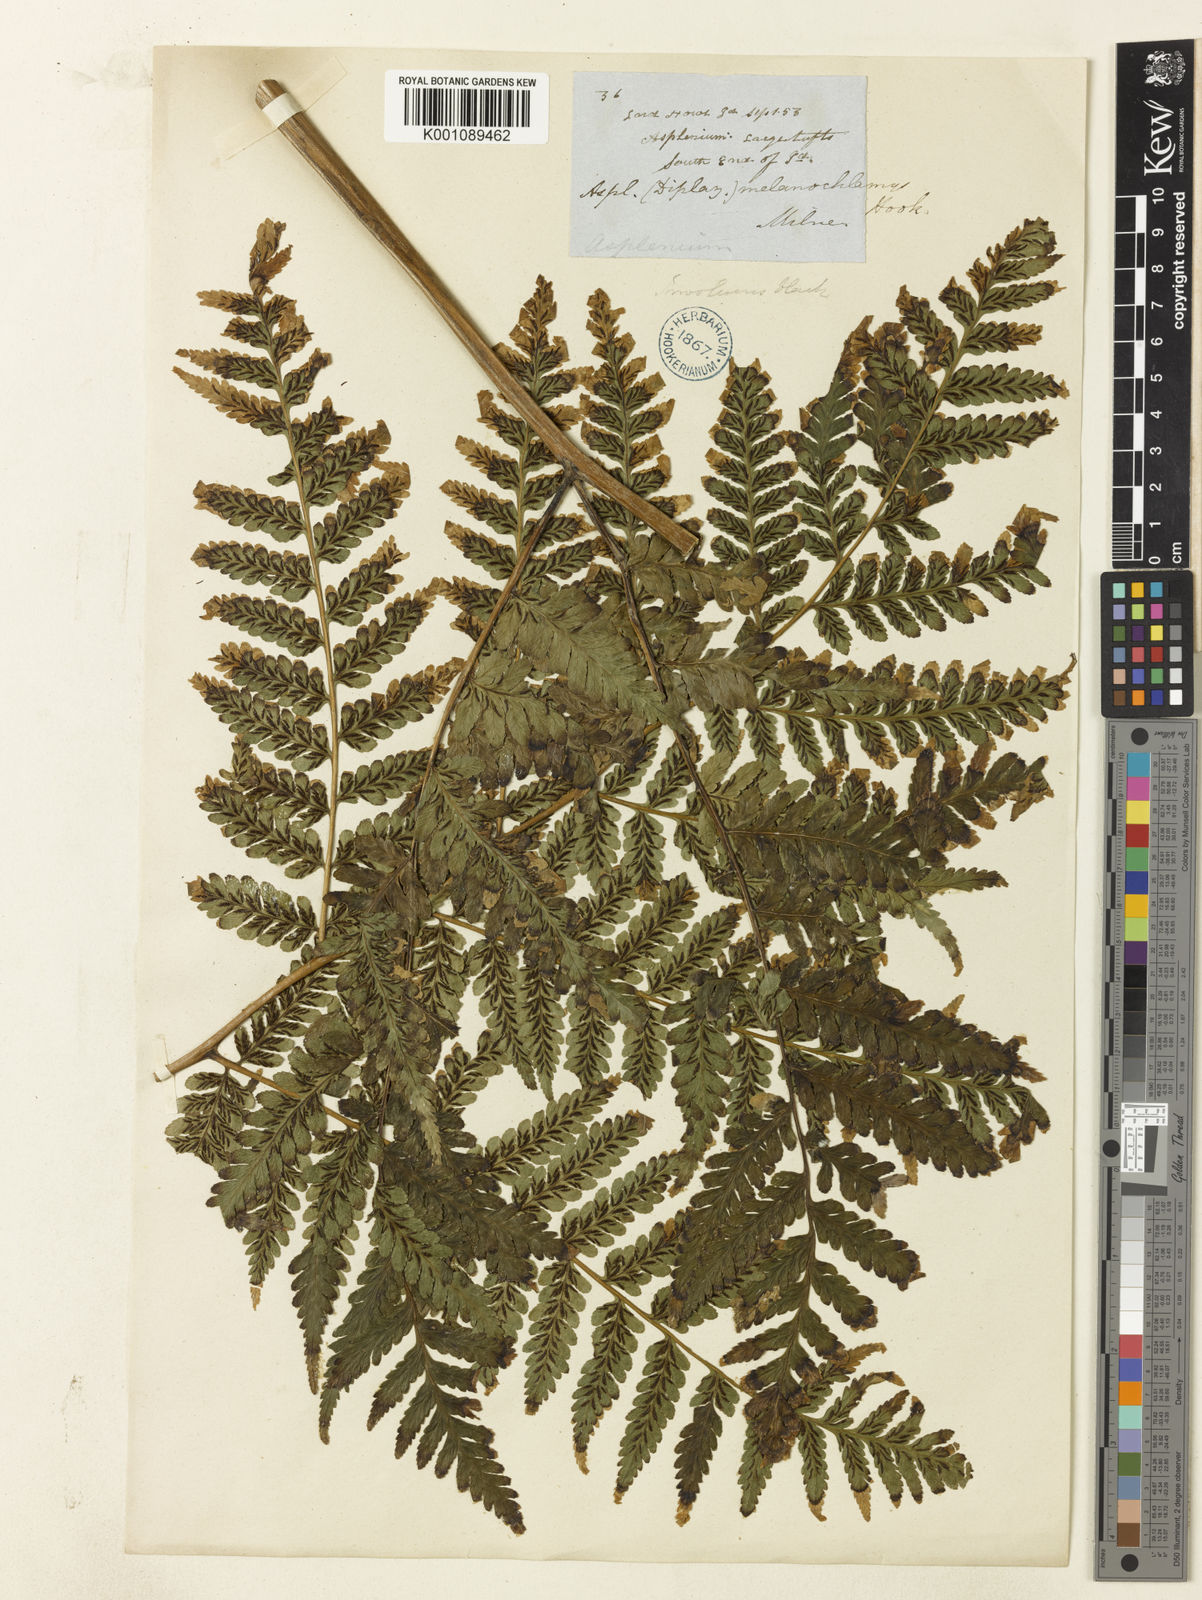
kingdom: Plantae
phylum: Tracheophyta
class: Polypodiopsida
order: Polypodiales
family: Athyriaceae
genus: Diplazium
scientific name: Diplazium melanochlamys
